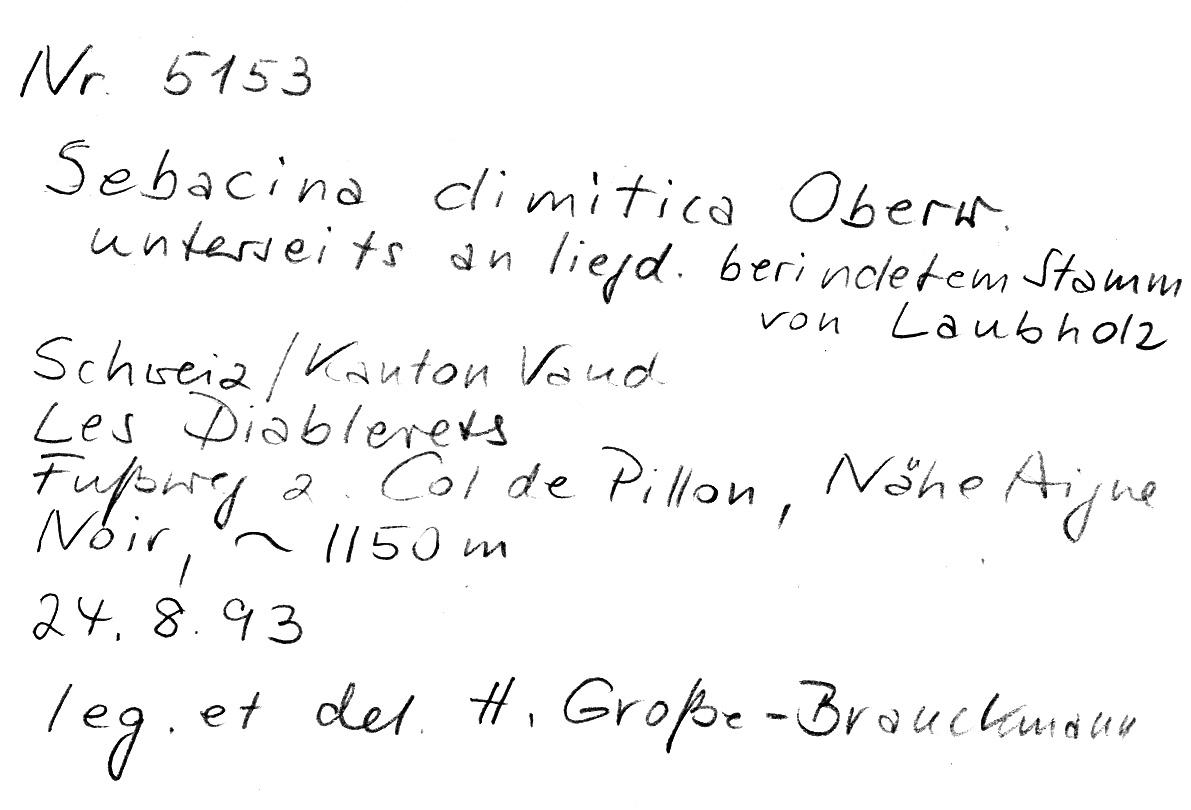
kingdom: Fungi
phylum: Basidiomycota
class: Agaricomycetes
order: Sebacinales
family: Sebacinaceae
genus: Sebacina
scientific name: Sebacina dimitica
